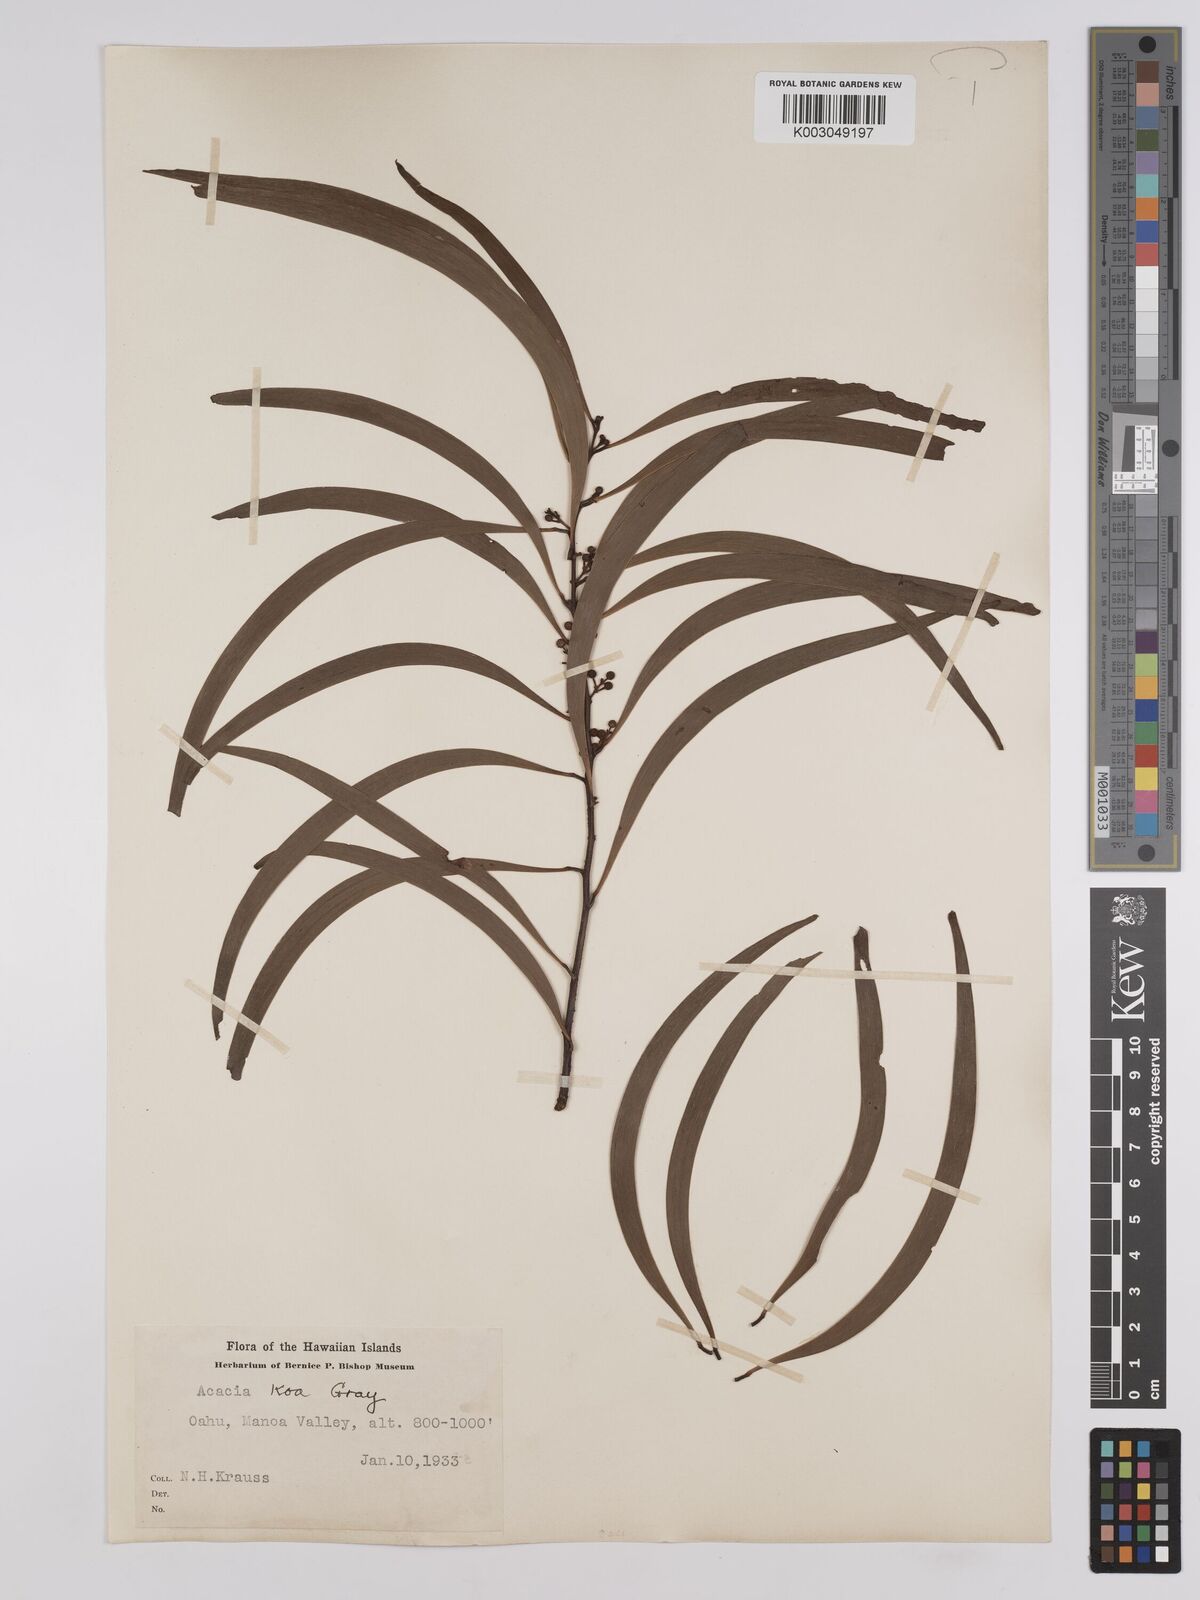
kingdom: Plantae
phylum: Tracheophyta
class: Magnoliopsida
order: Fabales
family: Fabaceae
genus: Acacia
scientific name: Acacia koa
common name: Gray koa
